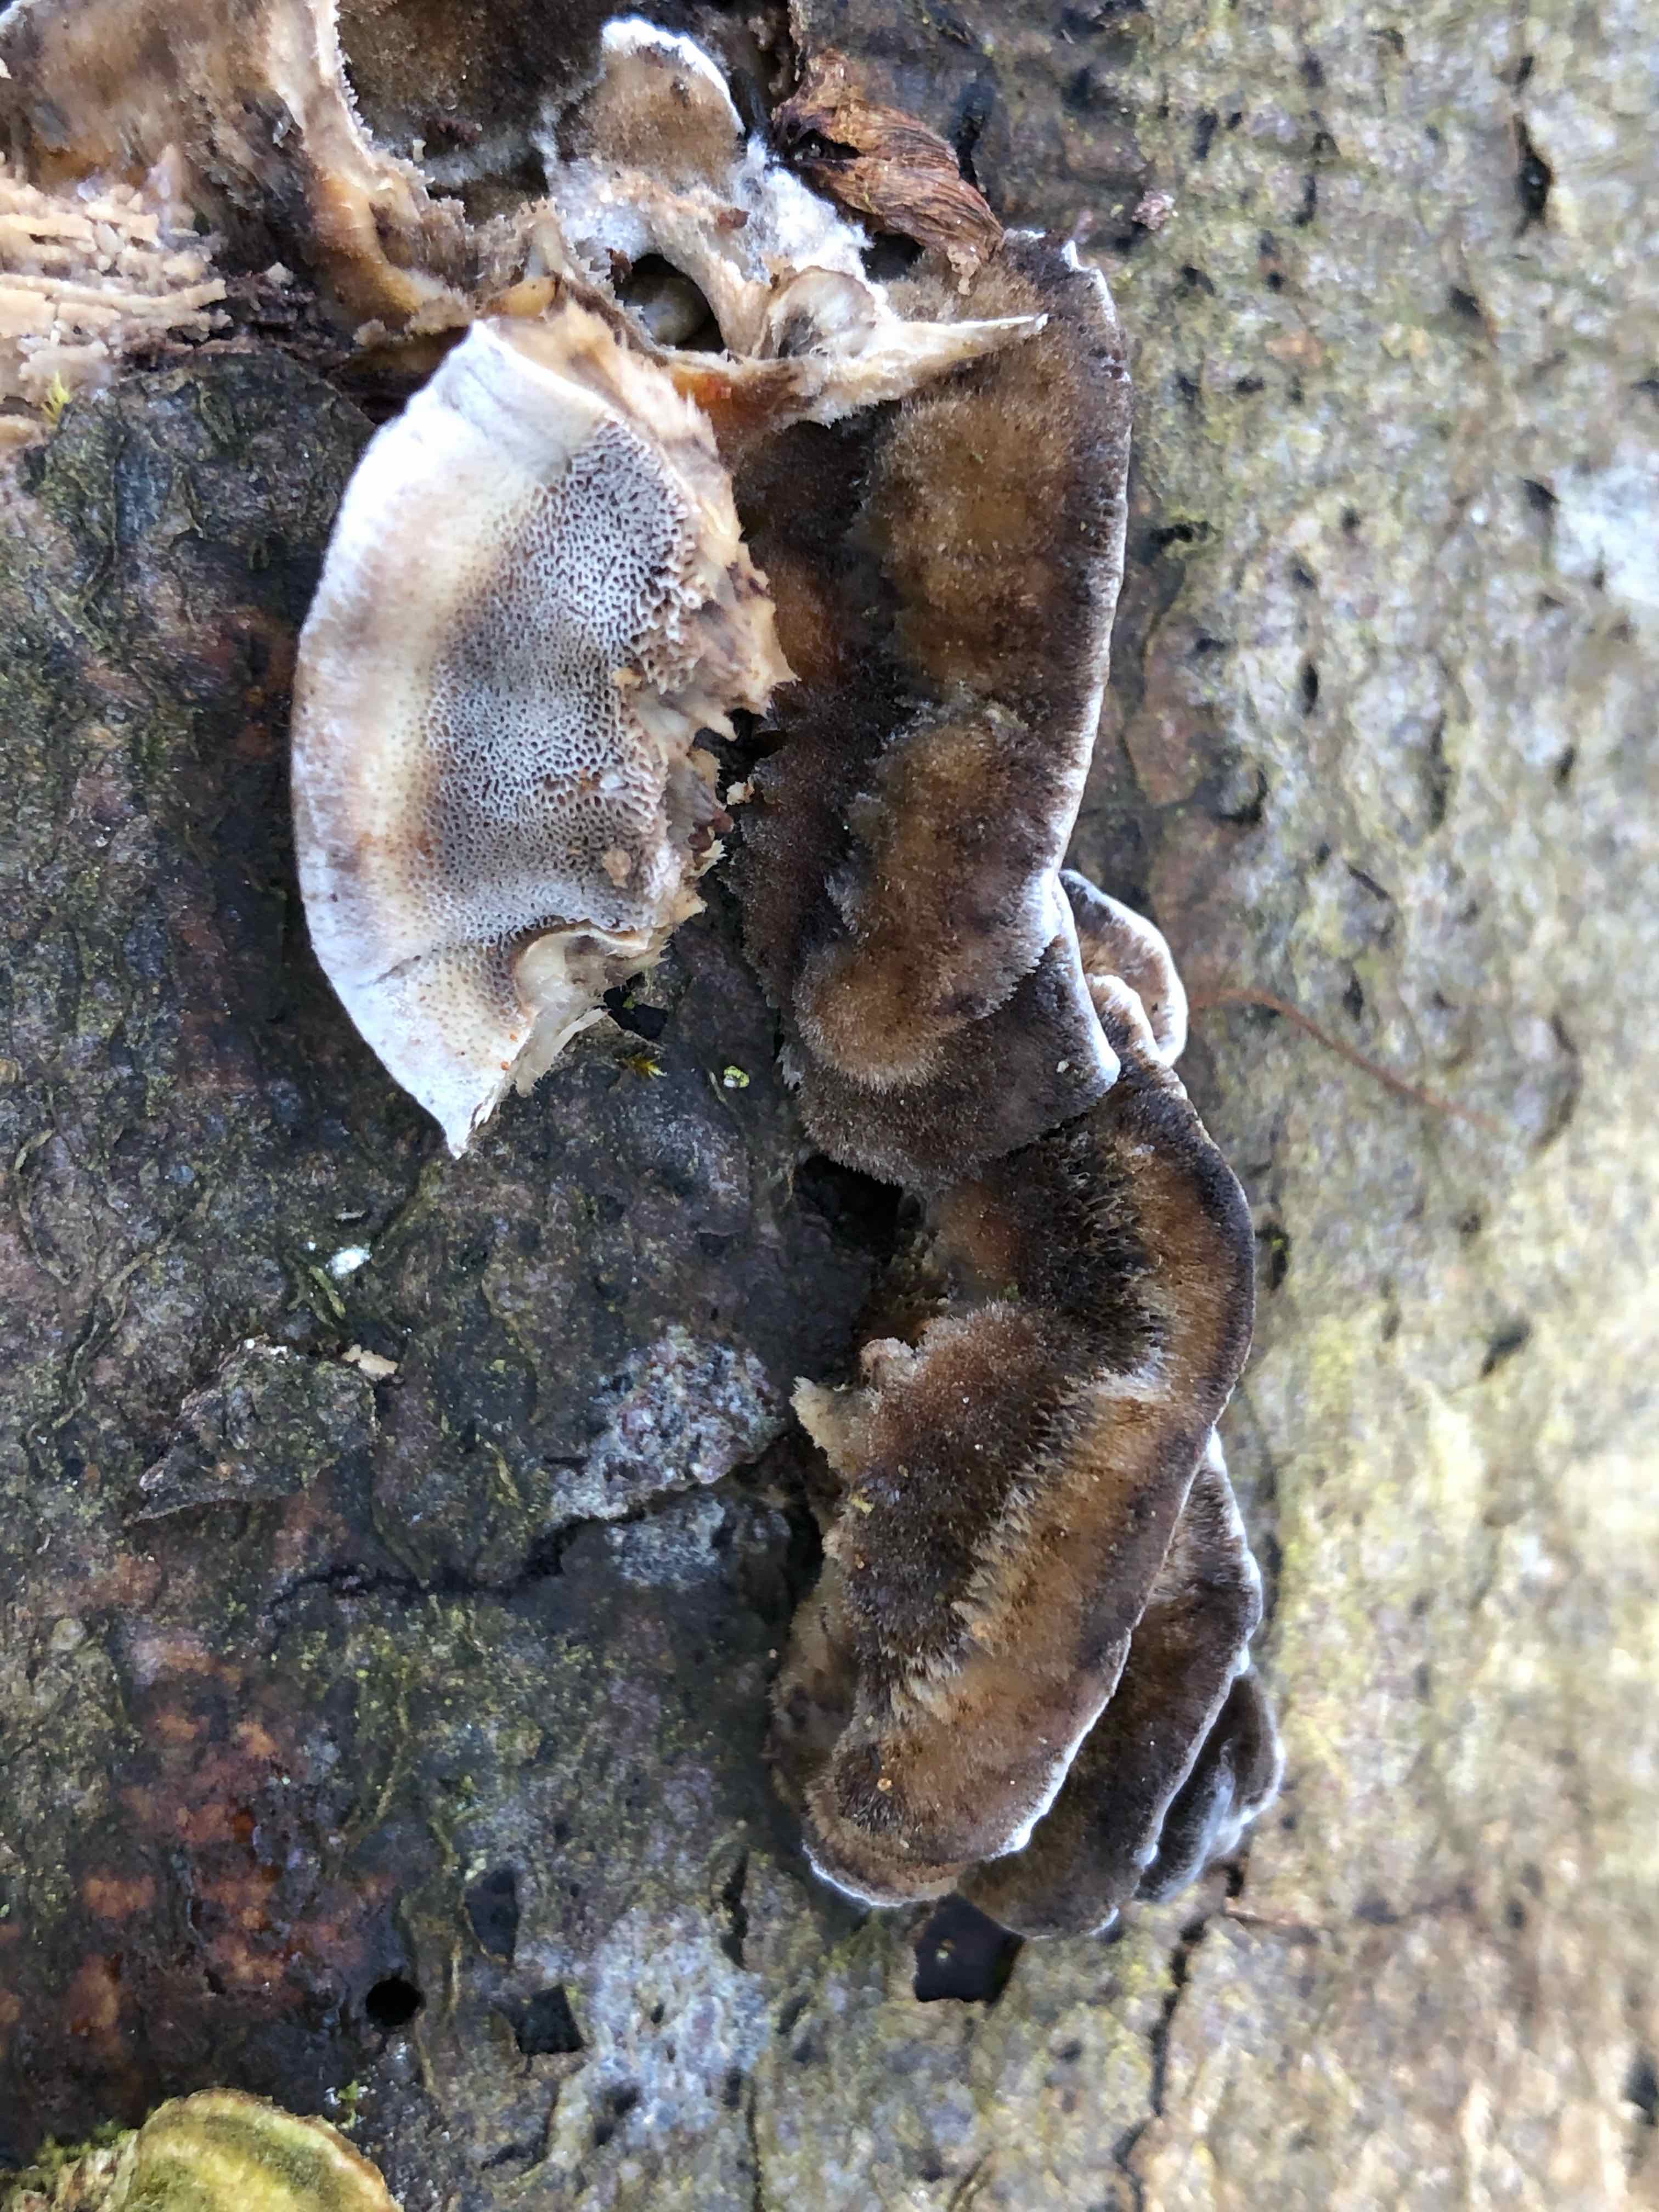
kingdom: Fungi
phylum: Basidiomycota
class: Agaricomycetes
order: Polyporales
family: Phanerochaetaceae
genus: Bjerkandera
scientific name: Bjerkandera adusta
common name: sveden sodporesvamp
